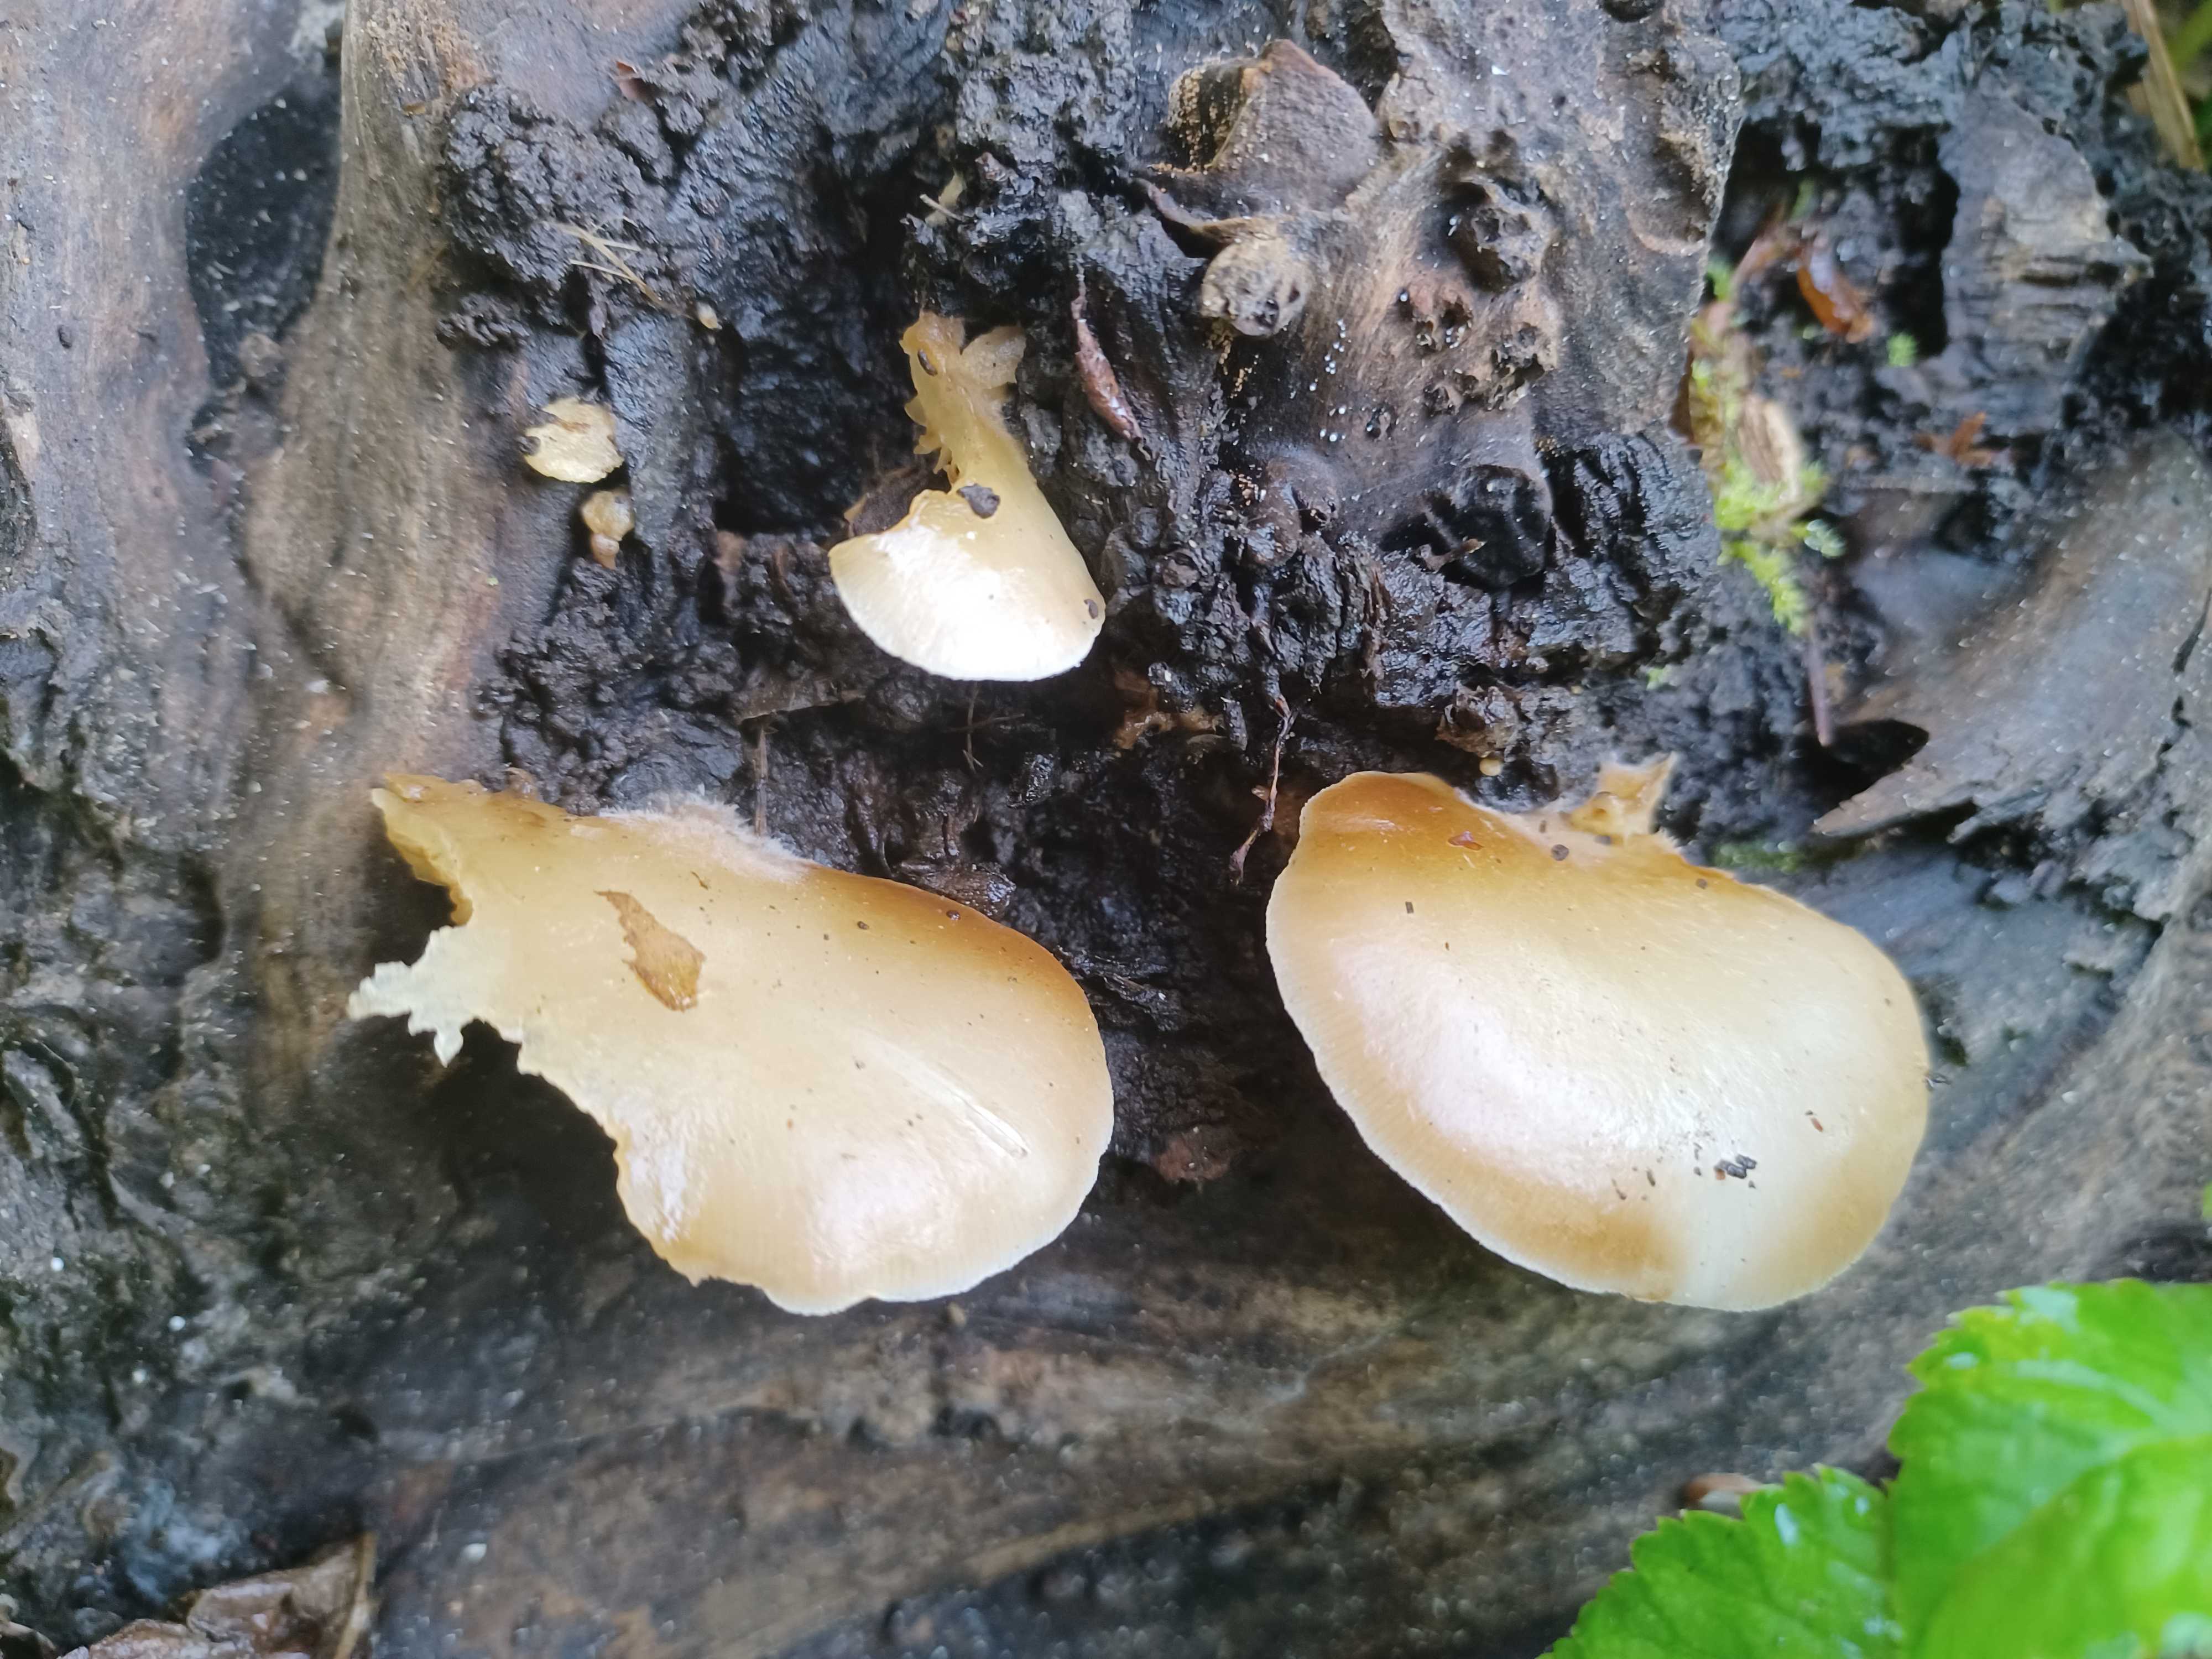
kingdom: Fungi
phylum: Basidiomycota
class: Agaricomycetes
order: Agaricales
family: Crepidotaceae
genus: Crepidotus
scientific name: Crepidotus mollis
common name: blød muslingesvamp
